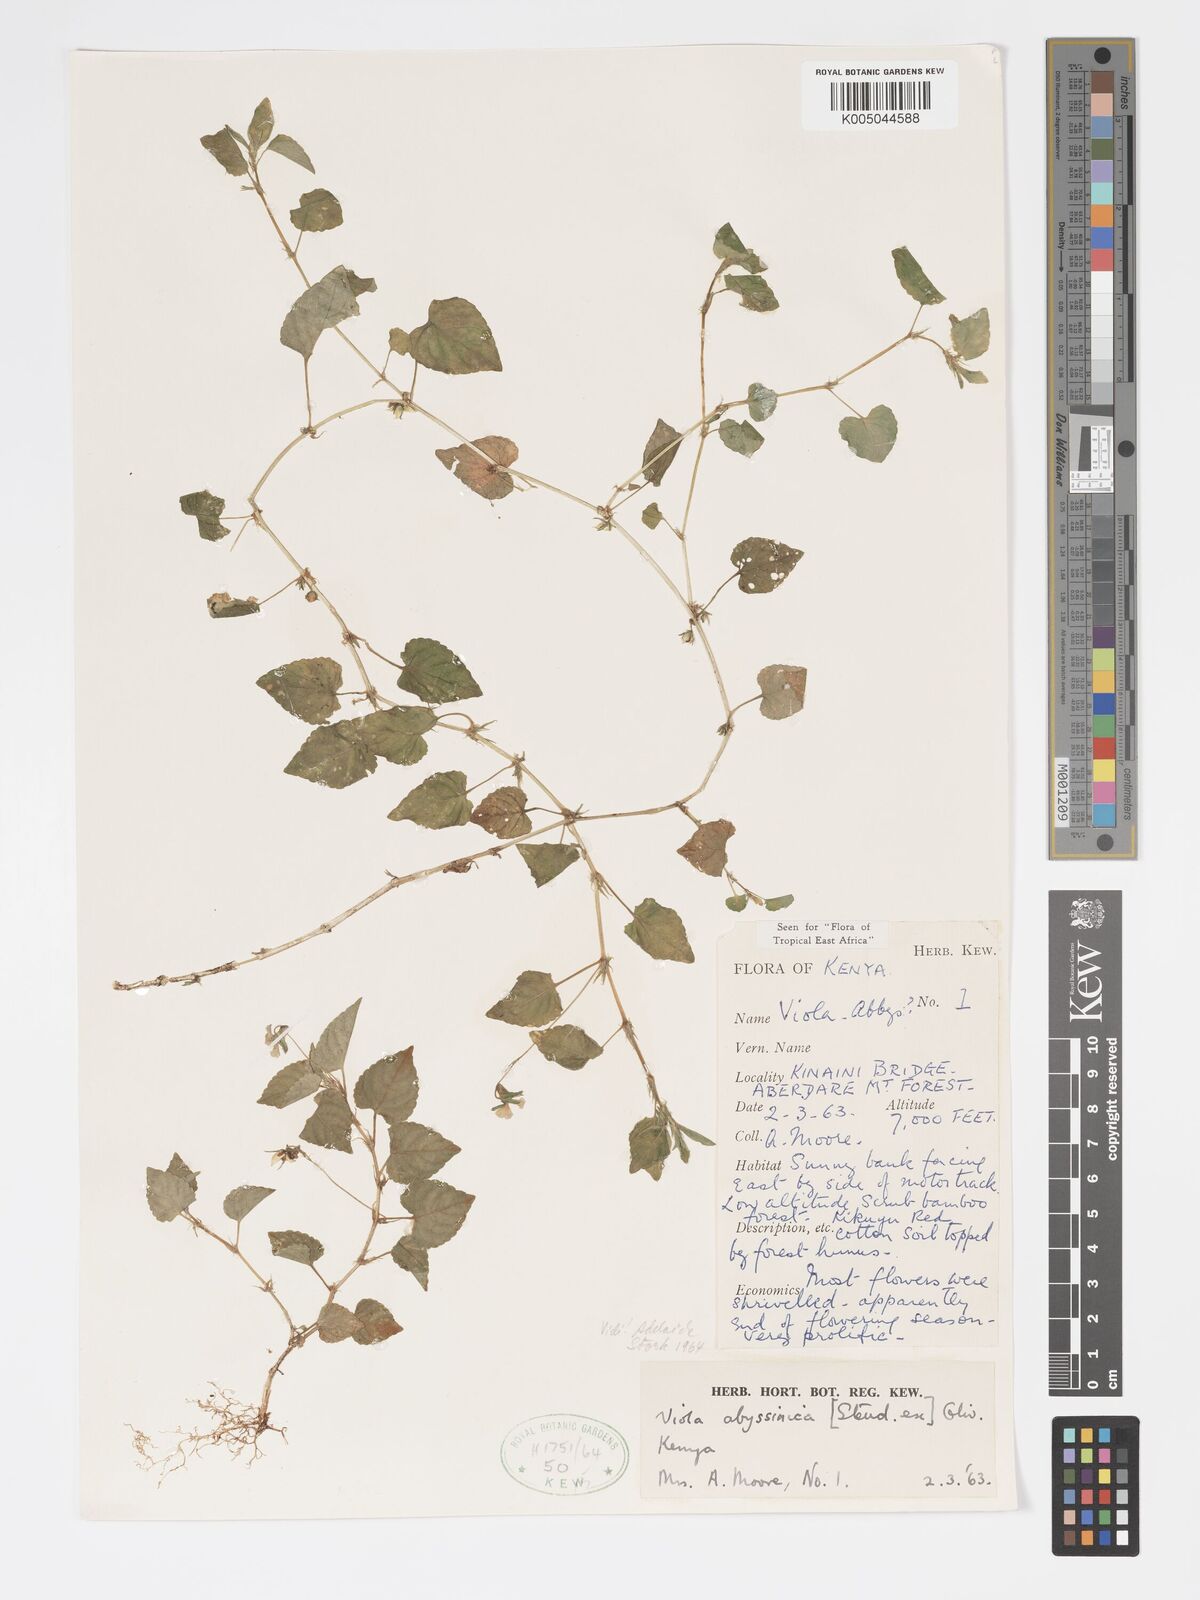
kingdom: Plantae
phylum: Tracheophyta
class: Magnoliopsida
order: Malpighiales
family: Violaceae
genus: Viola
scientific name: Viola abyssinica
